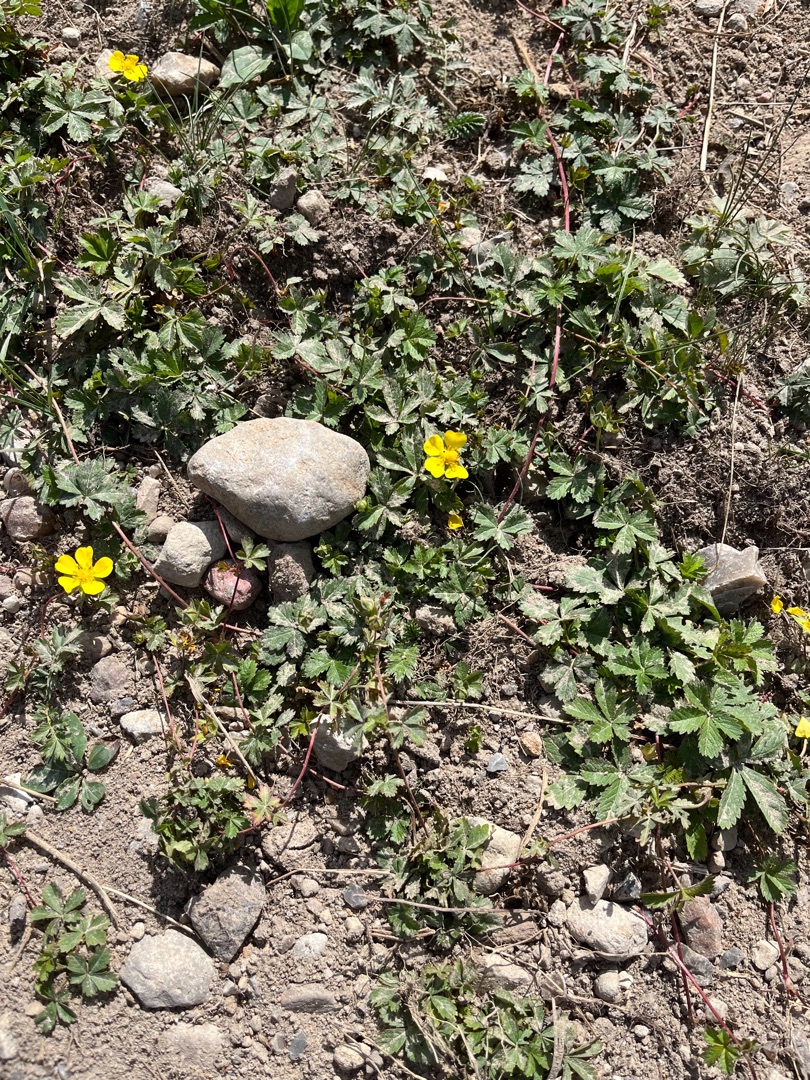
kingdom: Plantae
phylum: Tracheophyta
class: Magnoliopsida
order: Rosales
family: Rosaceae
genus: Potentilla
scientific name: Potentilla reptans
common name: Krybende potentil
